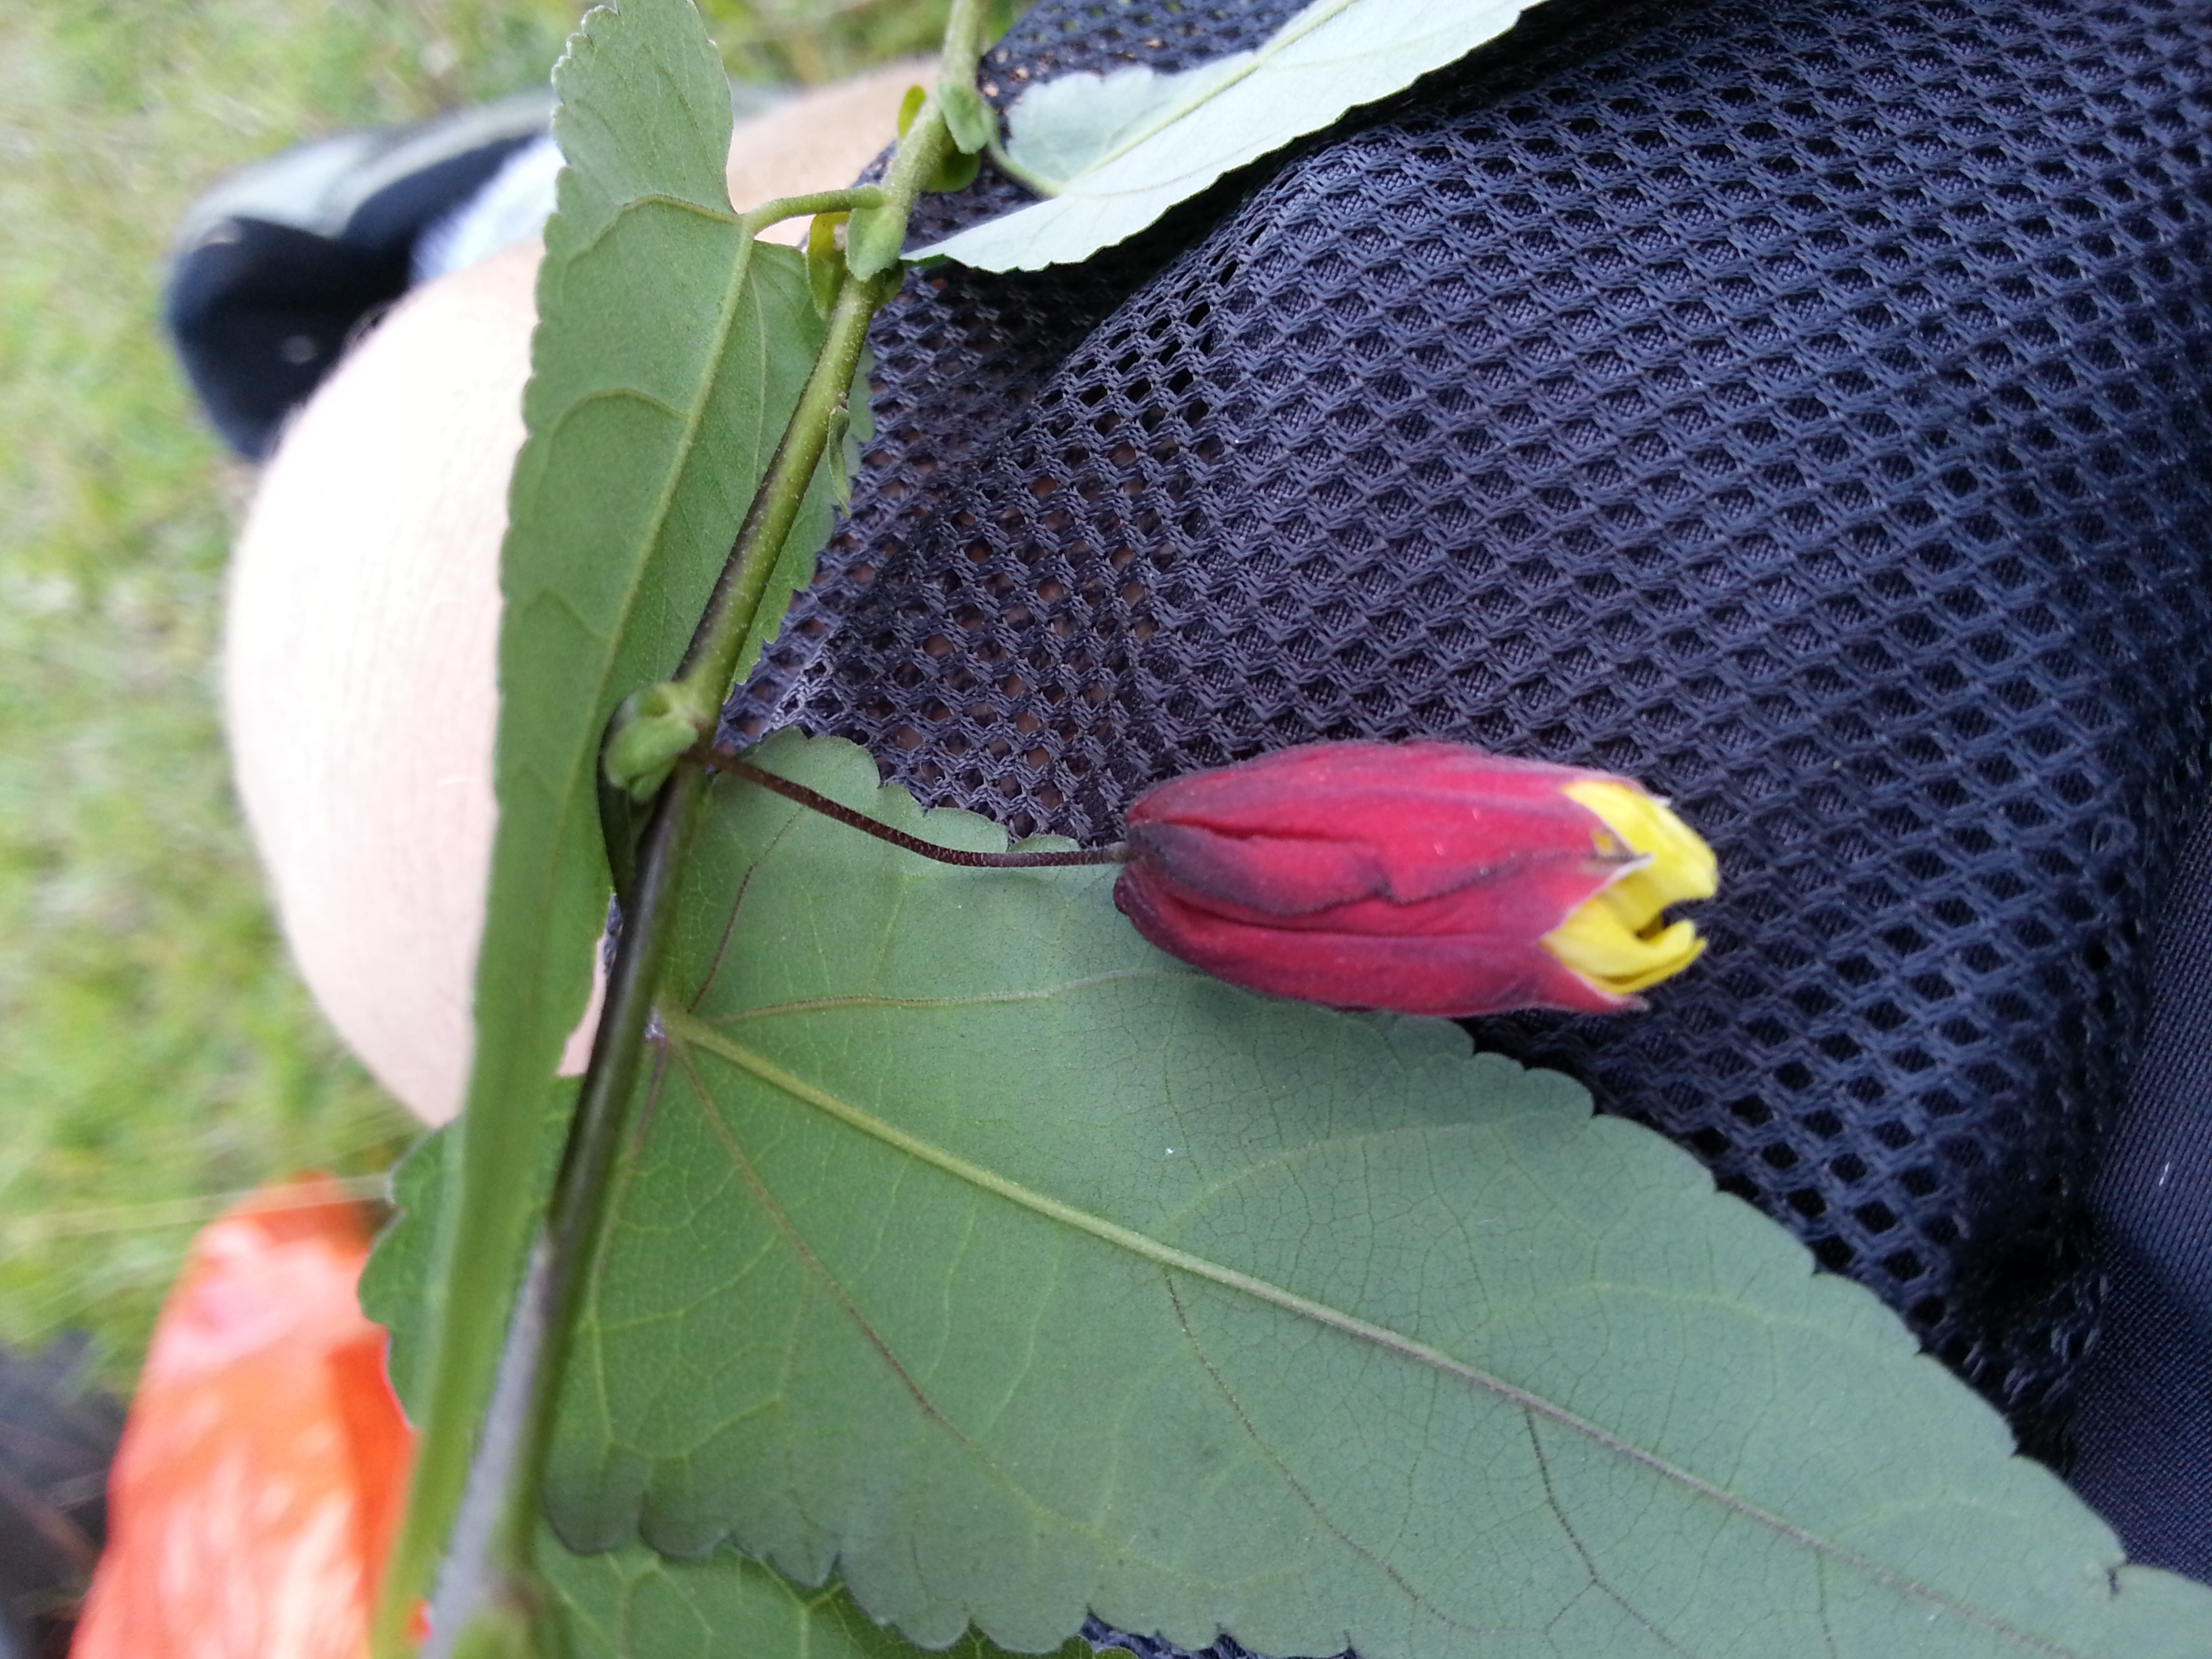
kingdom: Plantae
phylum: Tracheophyta
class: Magnoliopsida
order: Malvales
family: Malvaceae
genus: Callianthe
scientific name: Callianthe megapotamica
